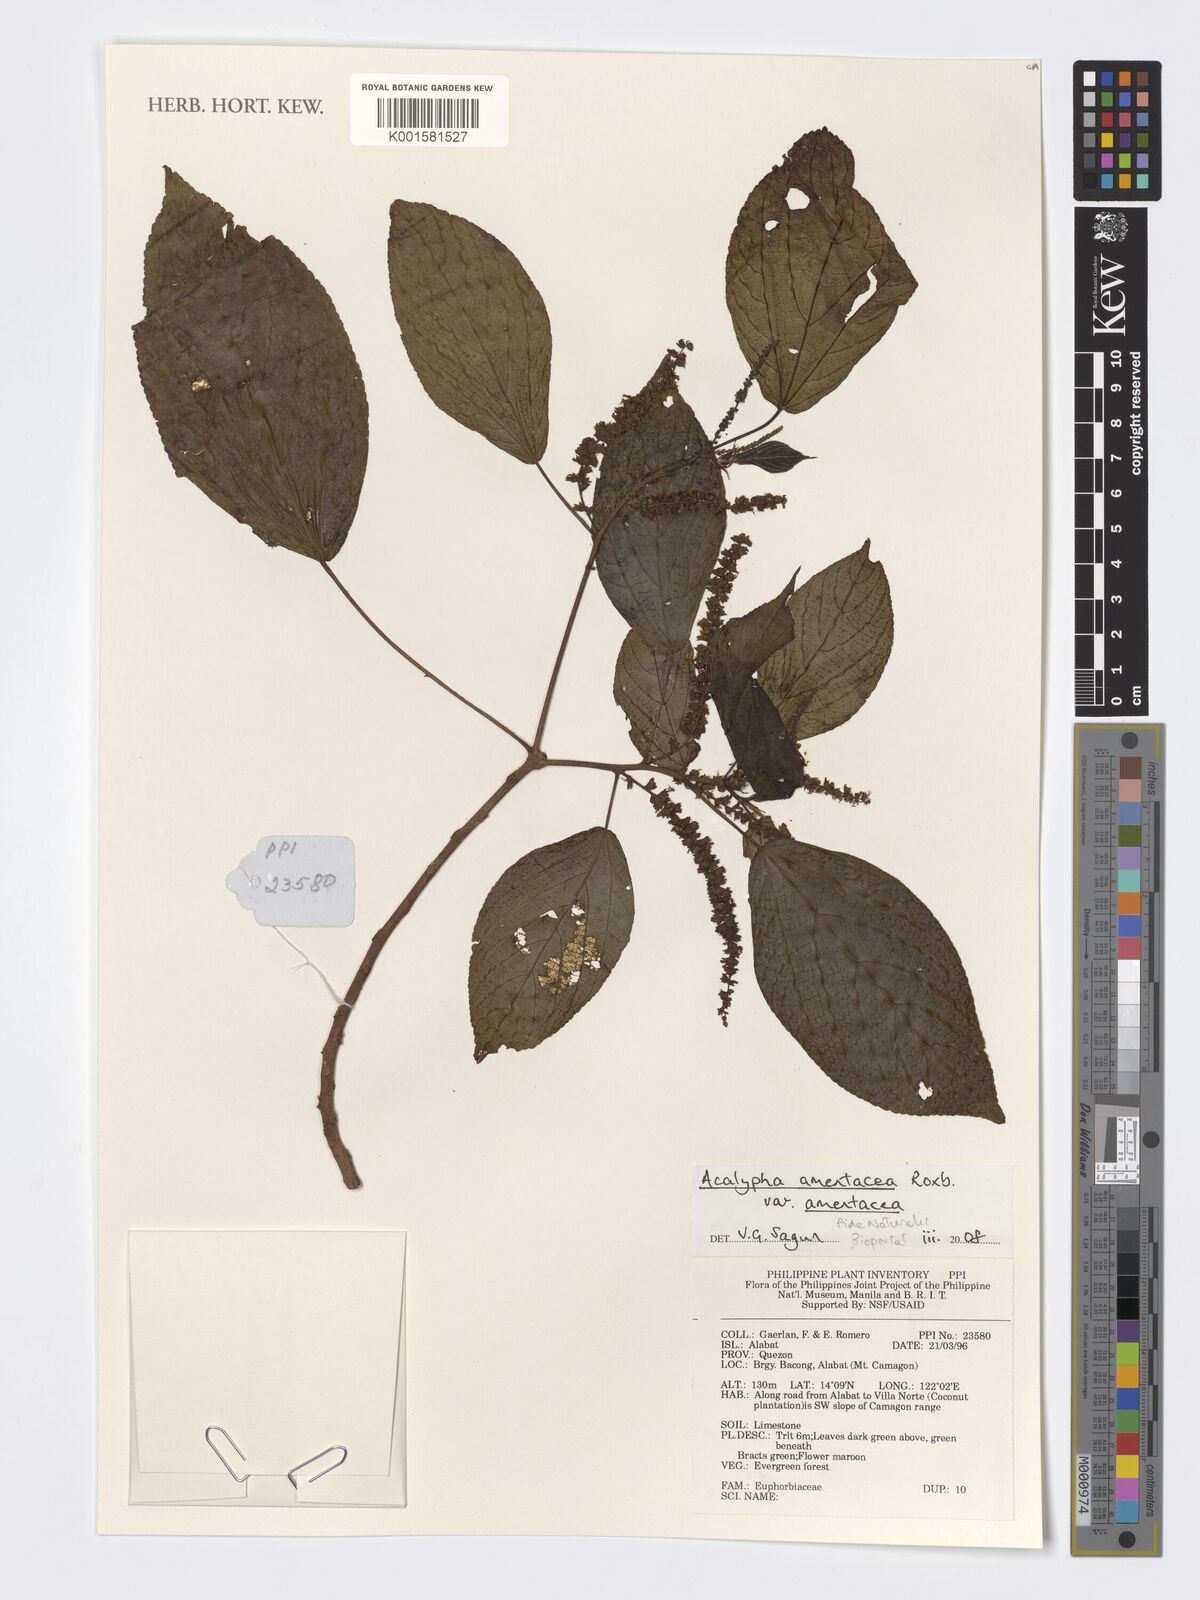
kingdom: Plantae
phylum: Tracheophyta
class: Magnoliopsida
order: Malpighiales
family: Euphorbiaceae
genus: Acalypha
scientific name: Acalypha amentacea
